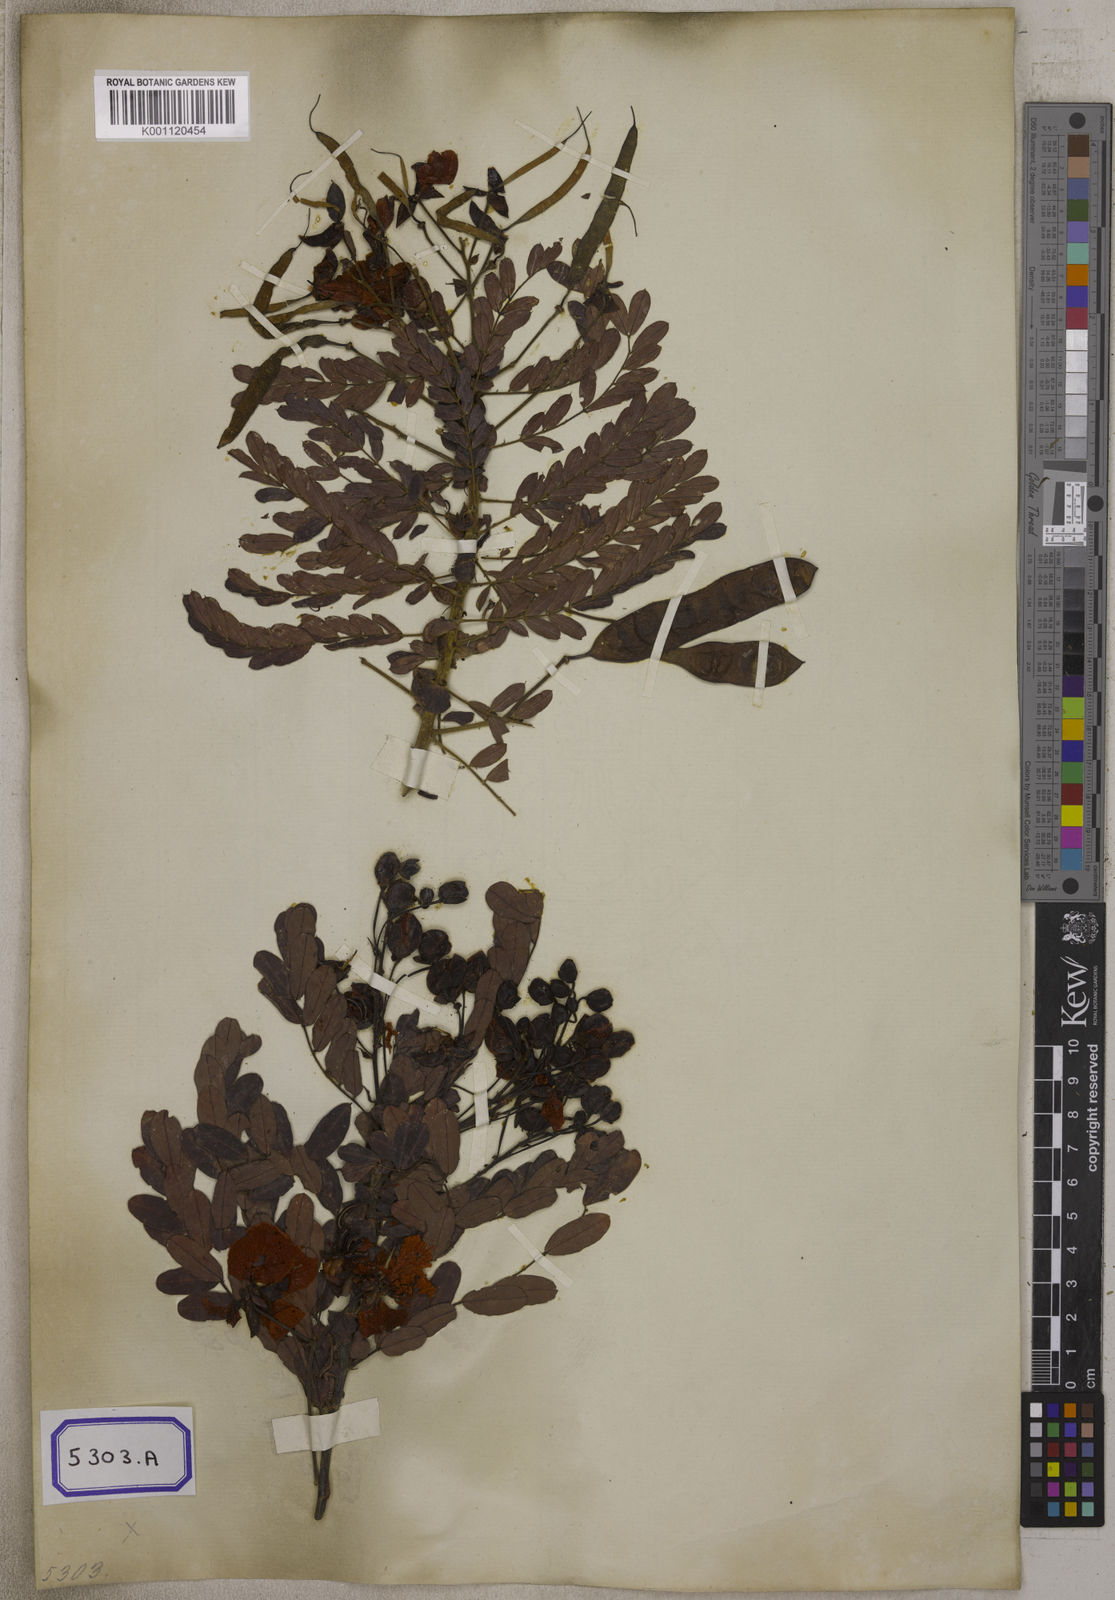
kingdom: Plantae
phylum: Tracheophyta
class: Magnoliopsida
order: Fabales
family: Fabaceae
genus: Senna
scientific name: Senna auriculata
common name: Tanner's cassia
